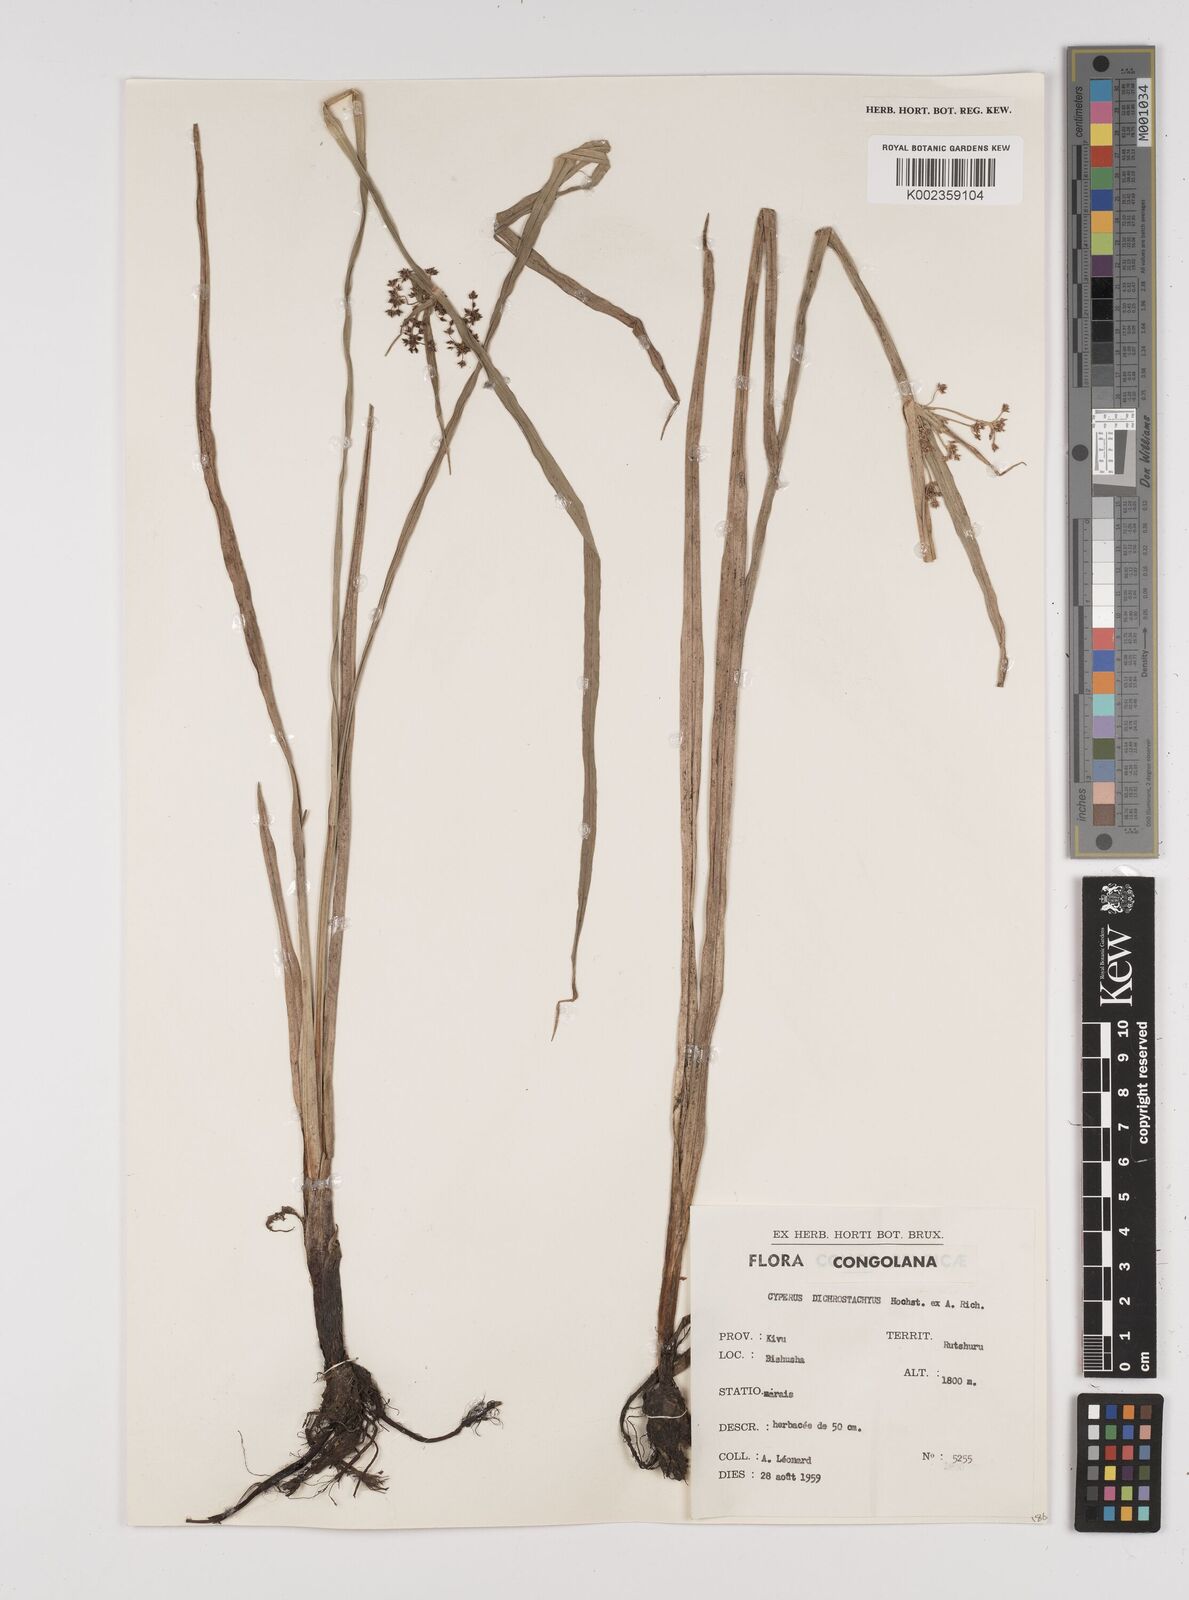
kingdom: Plantae
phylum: Tracheophyta
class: Liliopsida
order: Poales
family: Cyperaceae
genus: Cyperus
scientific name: Cyperus dichrostachyus
